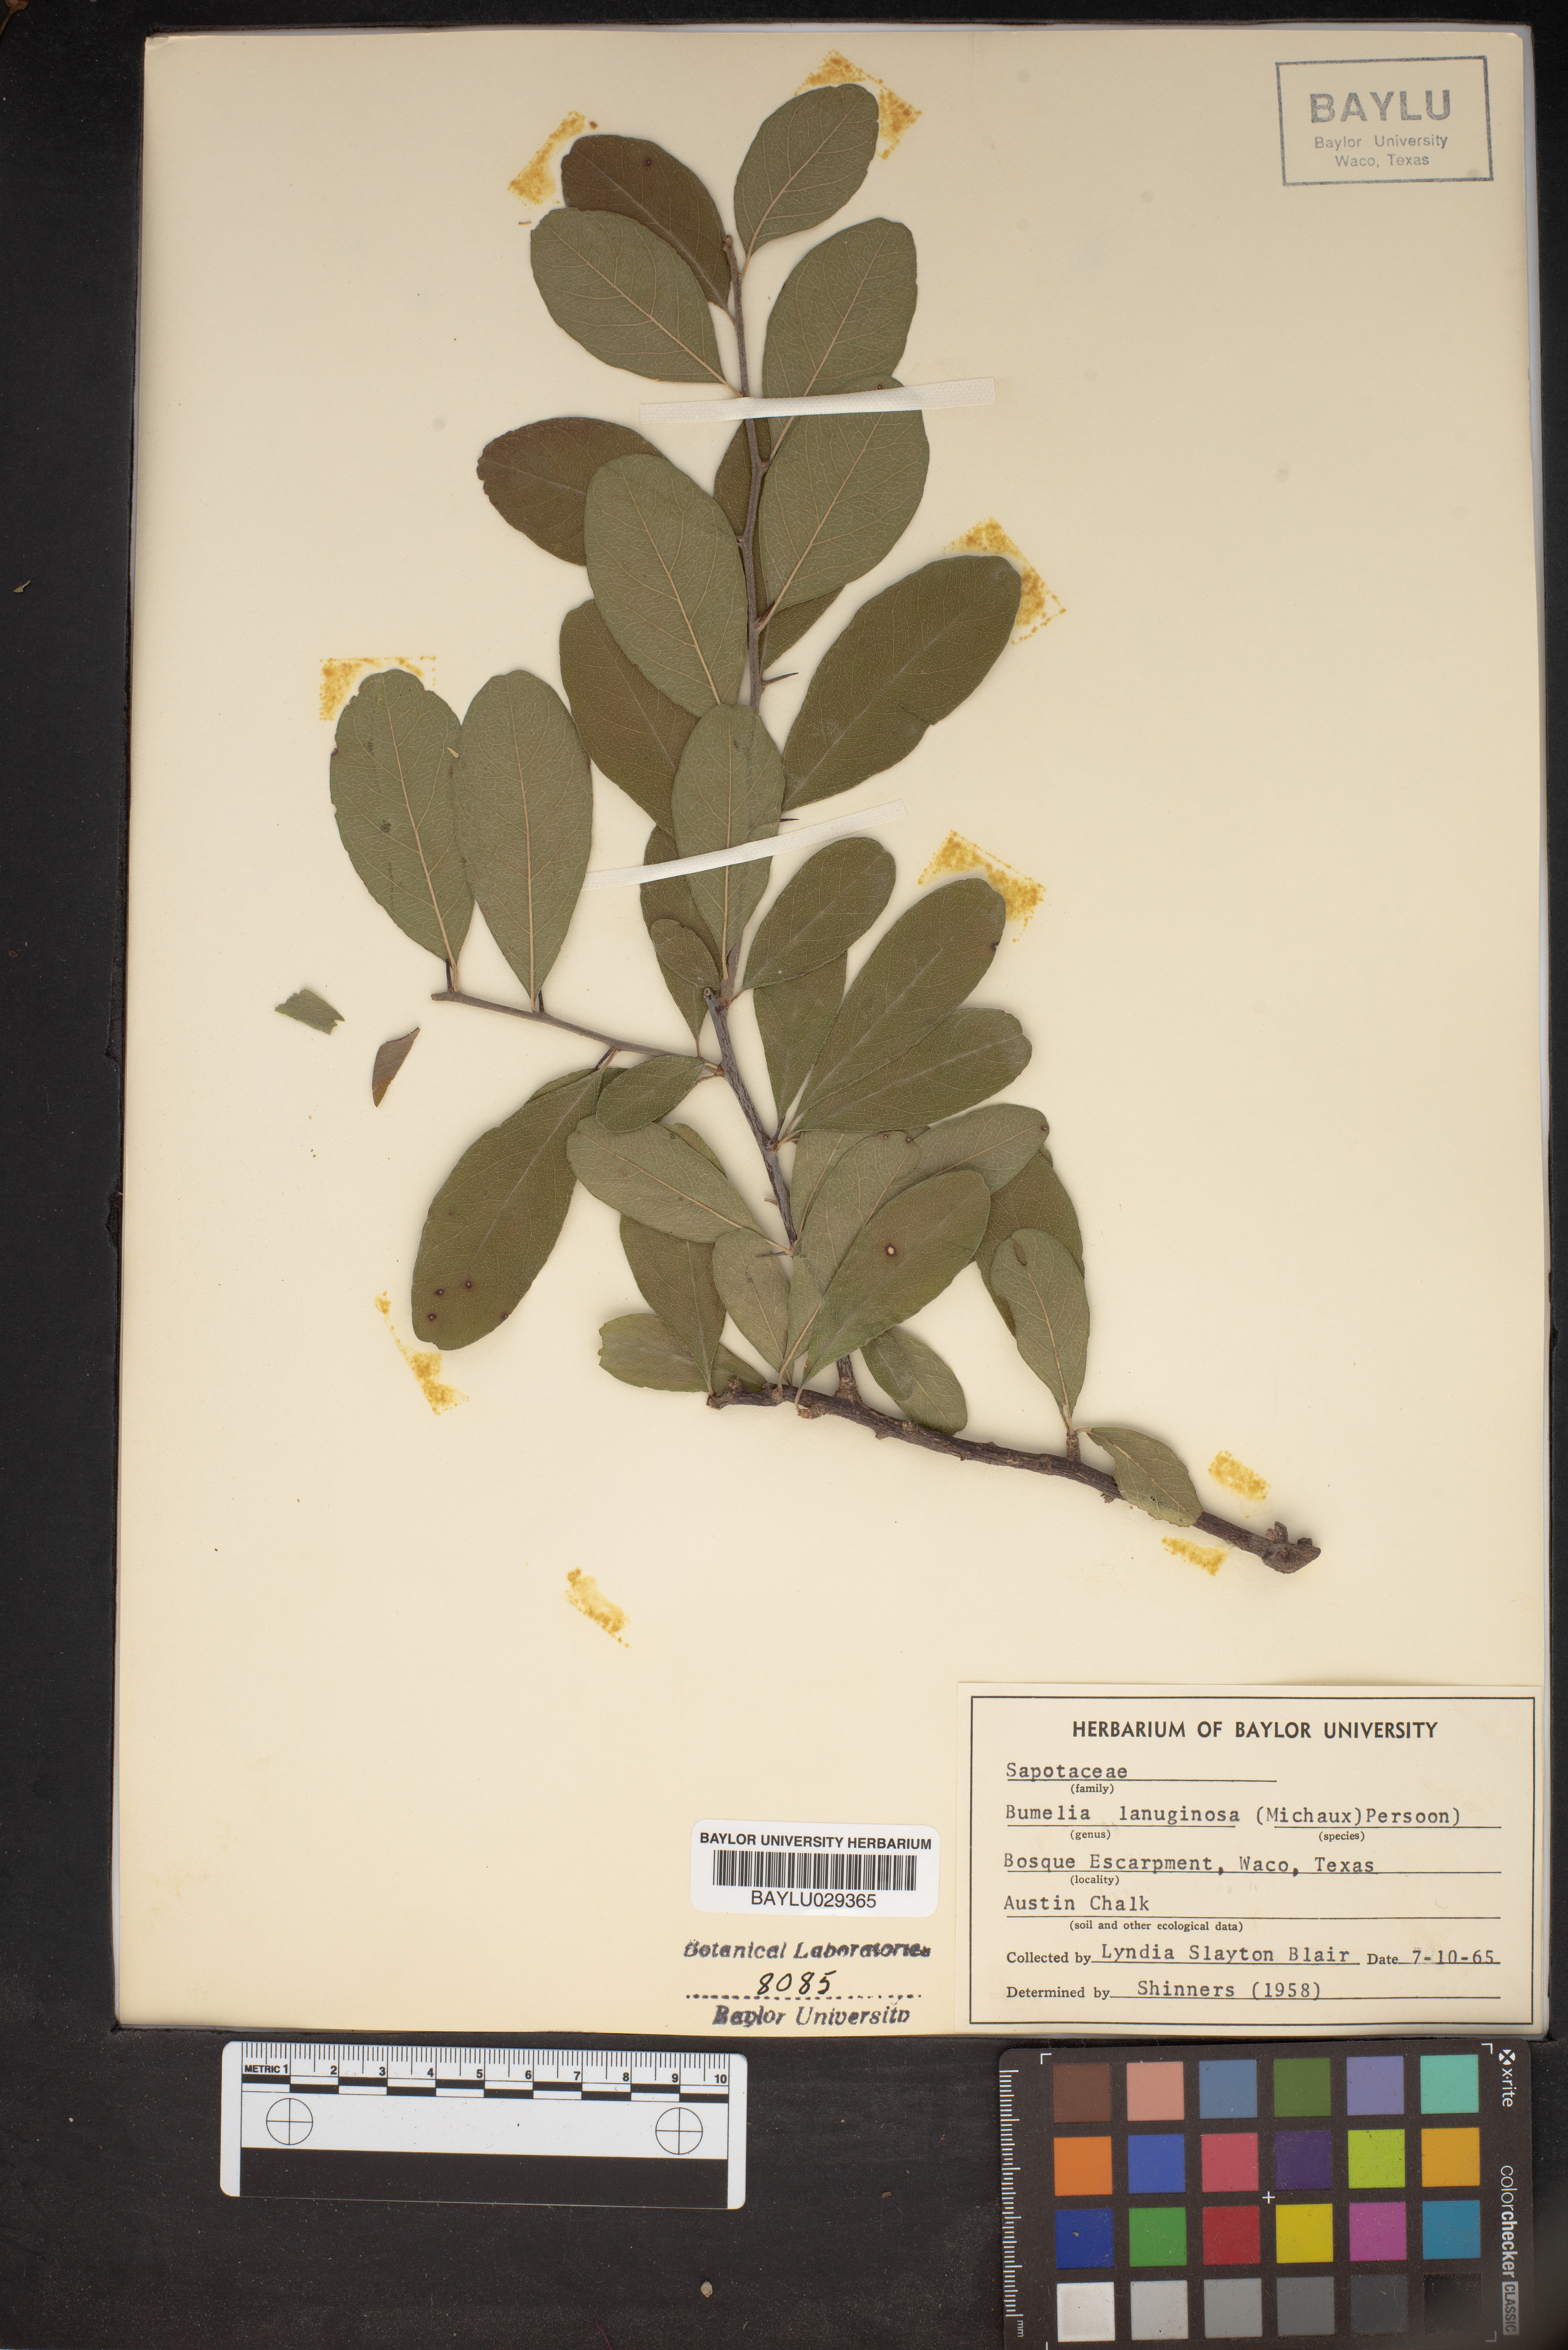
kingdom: Plantae
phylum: Tracheophyta
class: Magnoliopsida
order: Ericales
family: Sapotaceae
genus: Sideroxylon
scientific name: Sideroxylon lanuginosum
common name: Chittamwood
